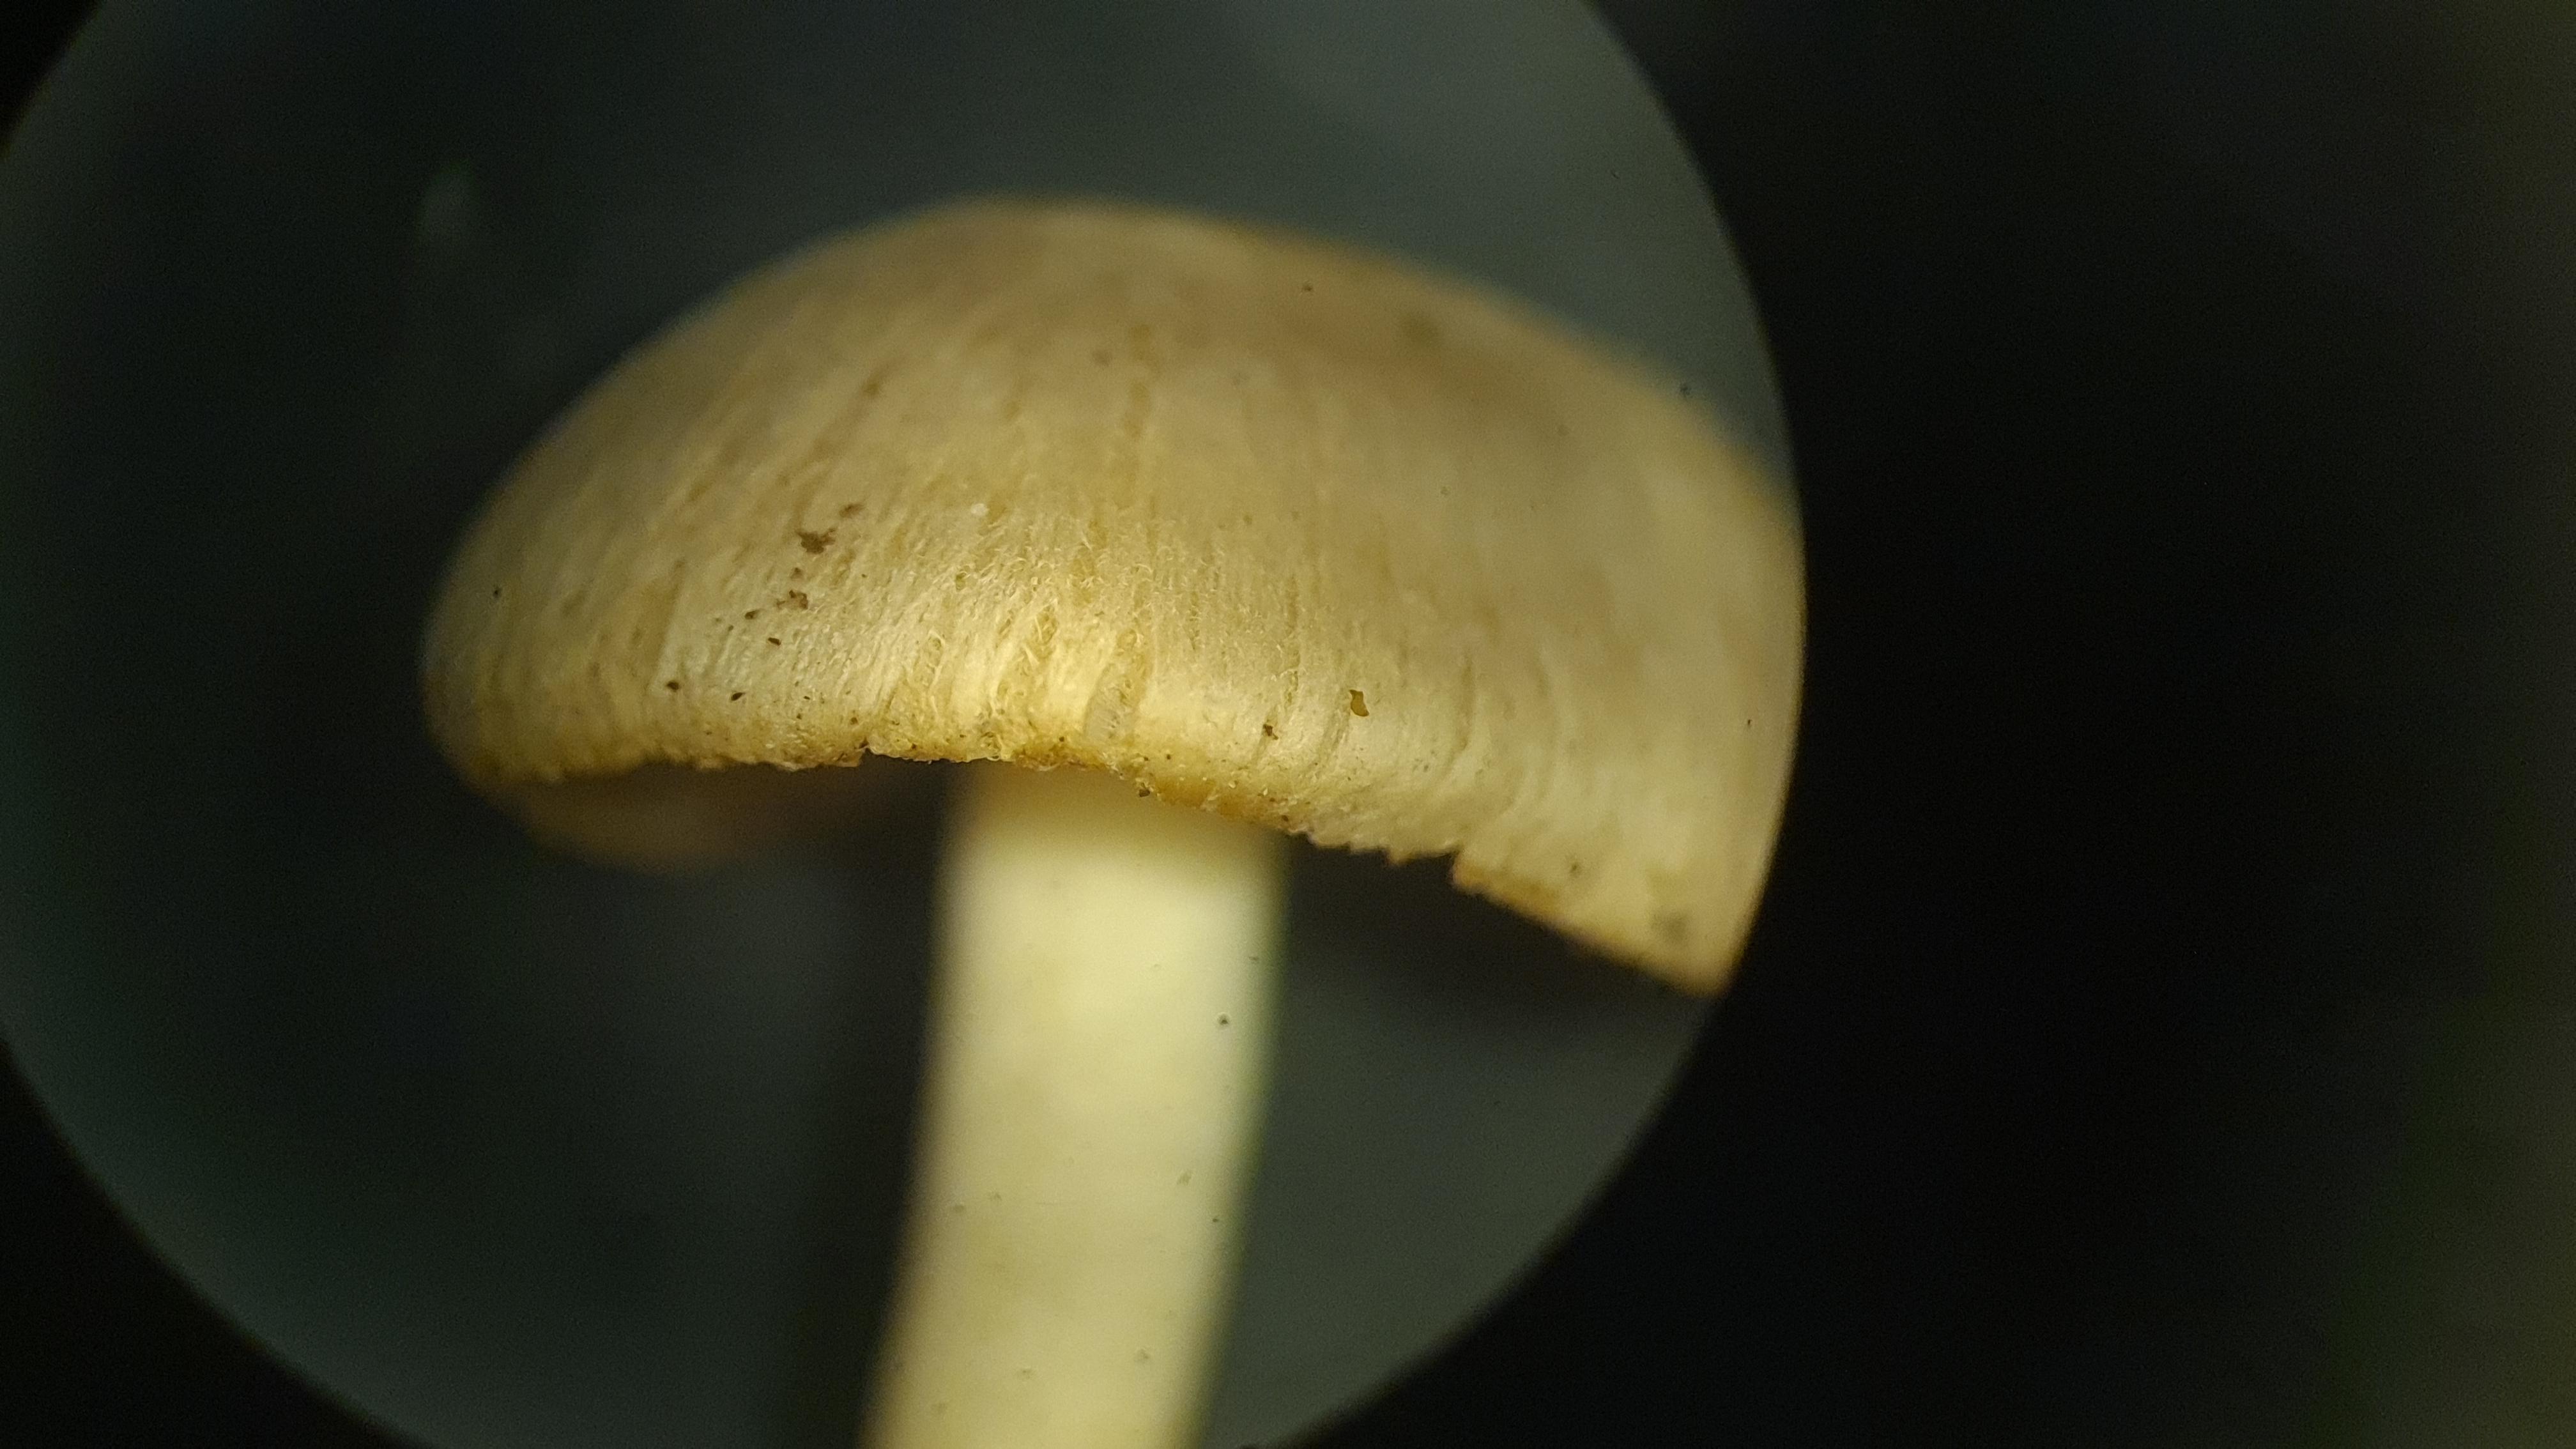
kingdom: Fungi
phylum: Basidiomycota
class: Agaricomycetes
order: Agaricales
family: Inocybaceae
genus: Inocybe
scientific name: Inocybe
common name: trævlhat
